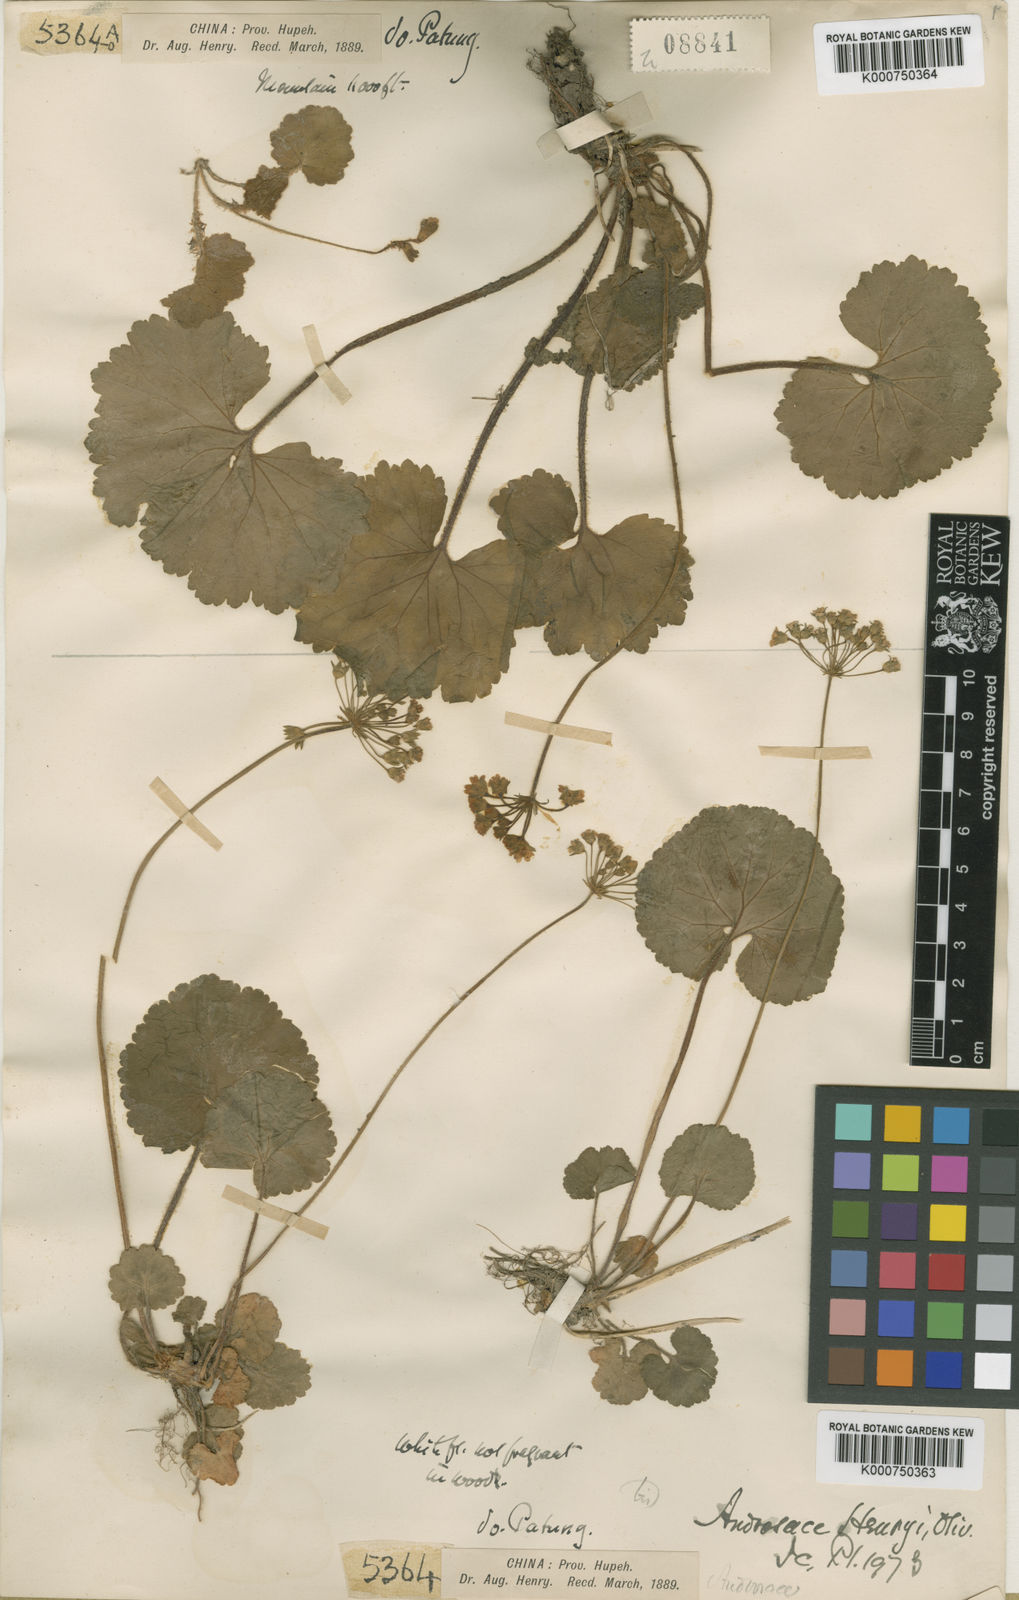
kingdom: Plantae
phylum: Tracheophyta
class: Magnoliopsida
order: Ericales
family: Primulaceae
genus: Androsace
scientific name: Androsace henryi
